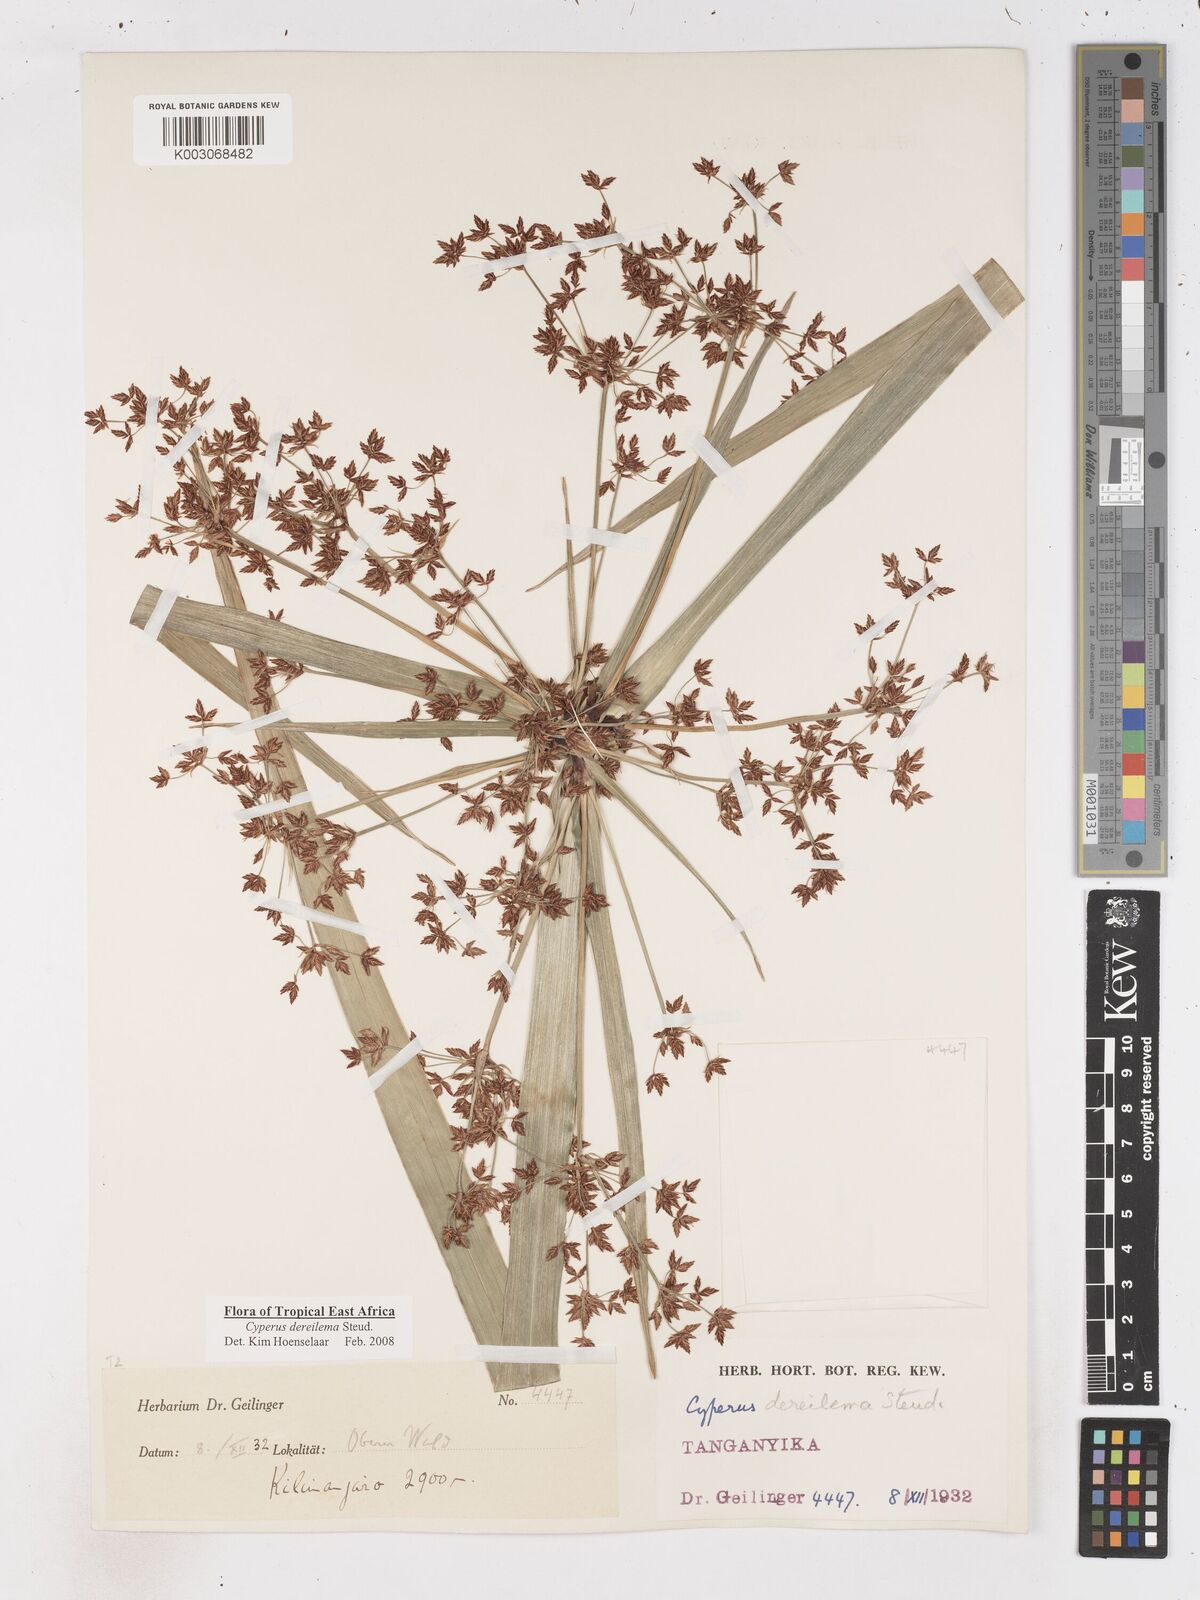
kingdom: Plantae
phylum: Tracheophyta
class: Liliopsida
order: Poales
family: Cyperaceae
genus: Cyperus
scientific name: Cyperus derreilema
